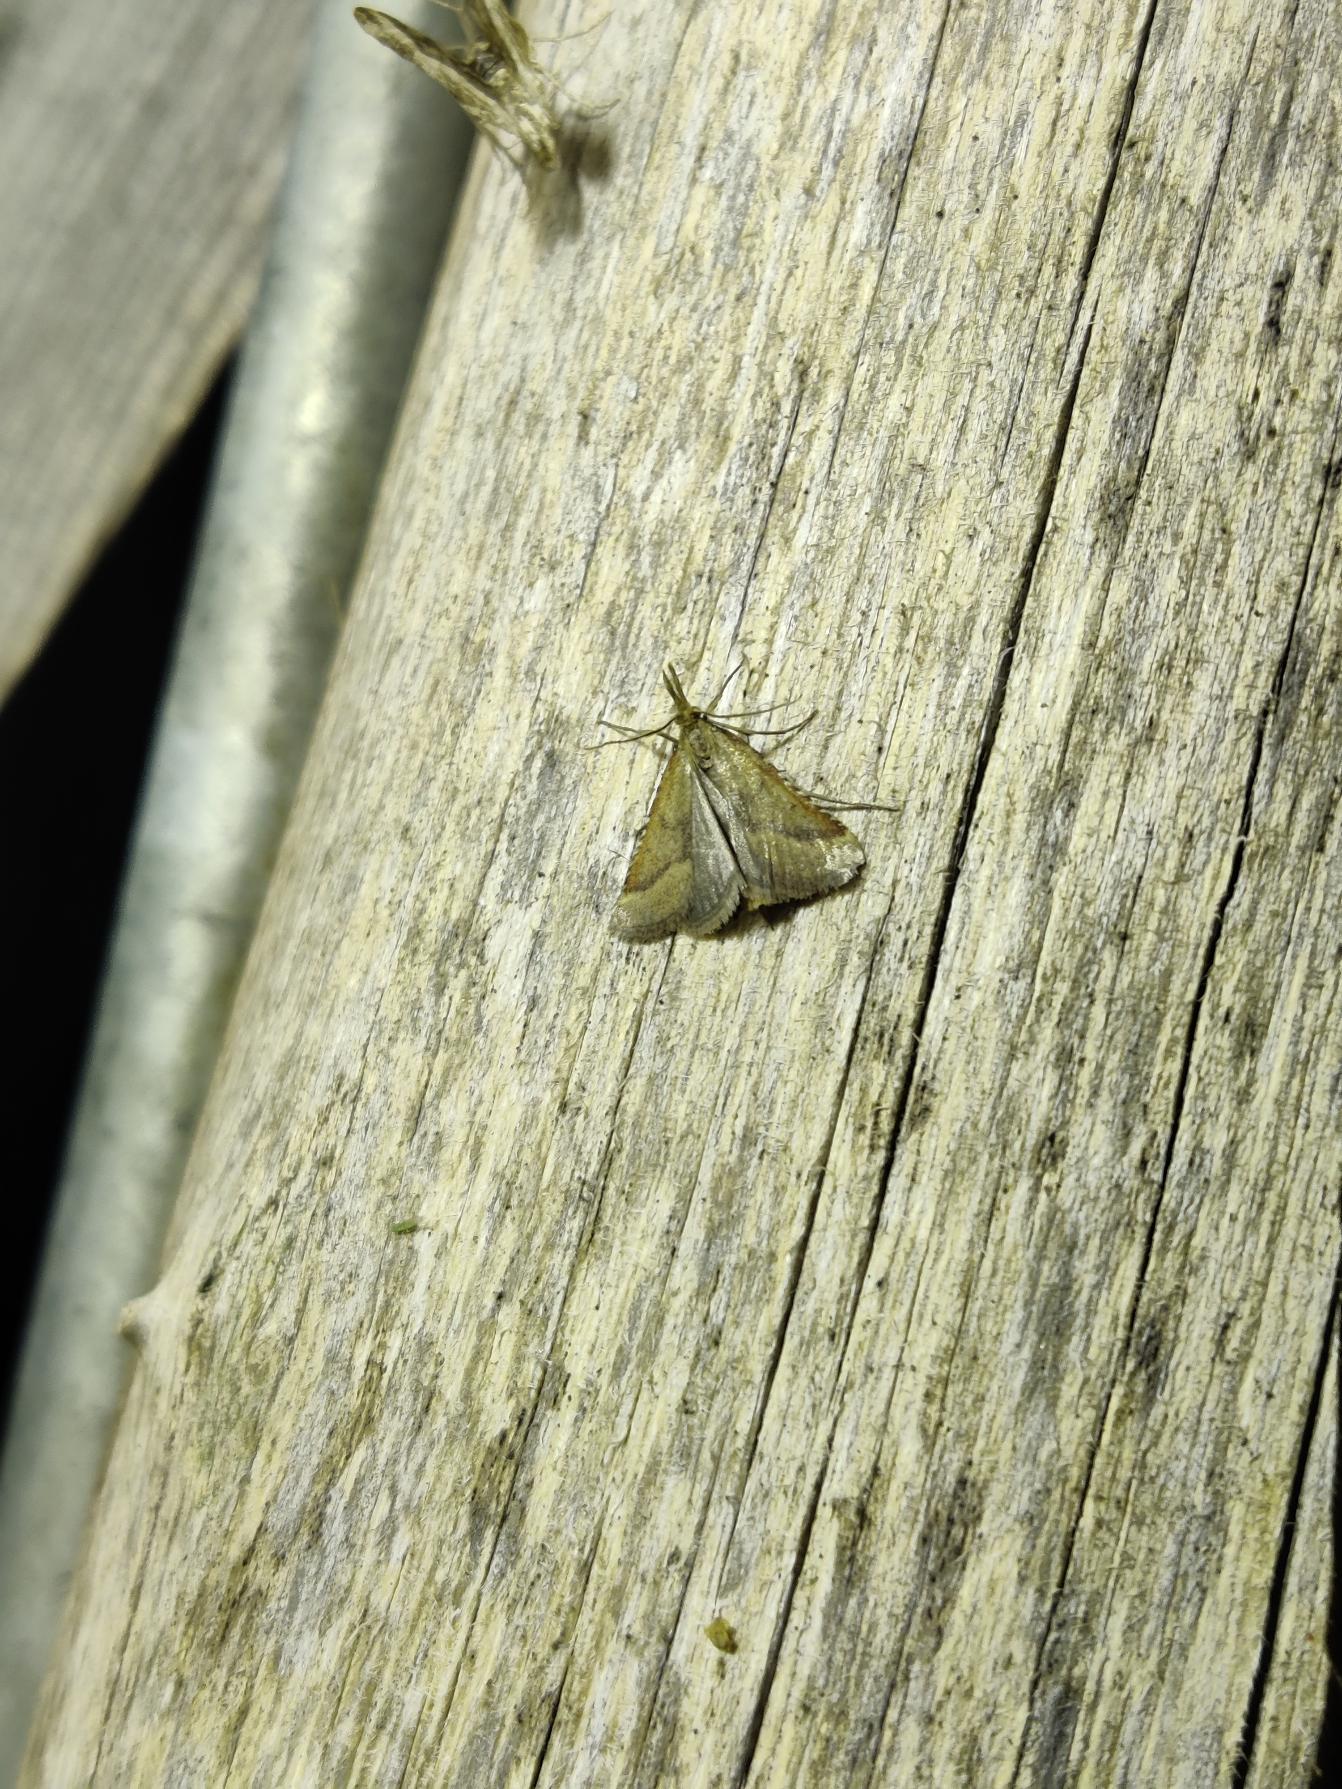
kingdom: Animalia
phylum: Arthropoda
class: Insecta
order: Lepidoptera
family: Pyralidae
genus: Synaphe
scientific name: Synaphe punctalis
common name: Spidsvinget moshalvmøl
